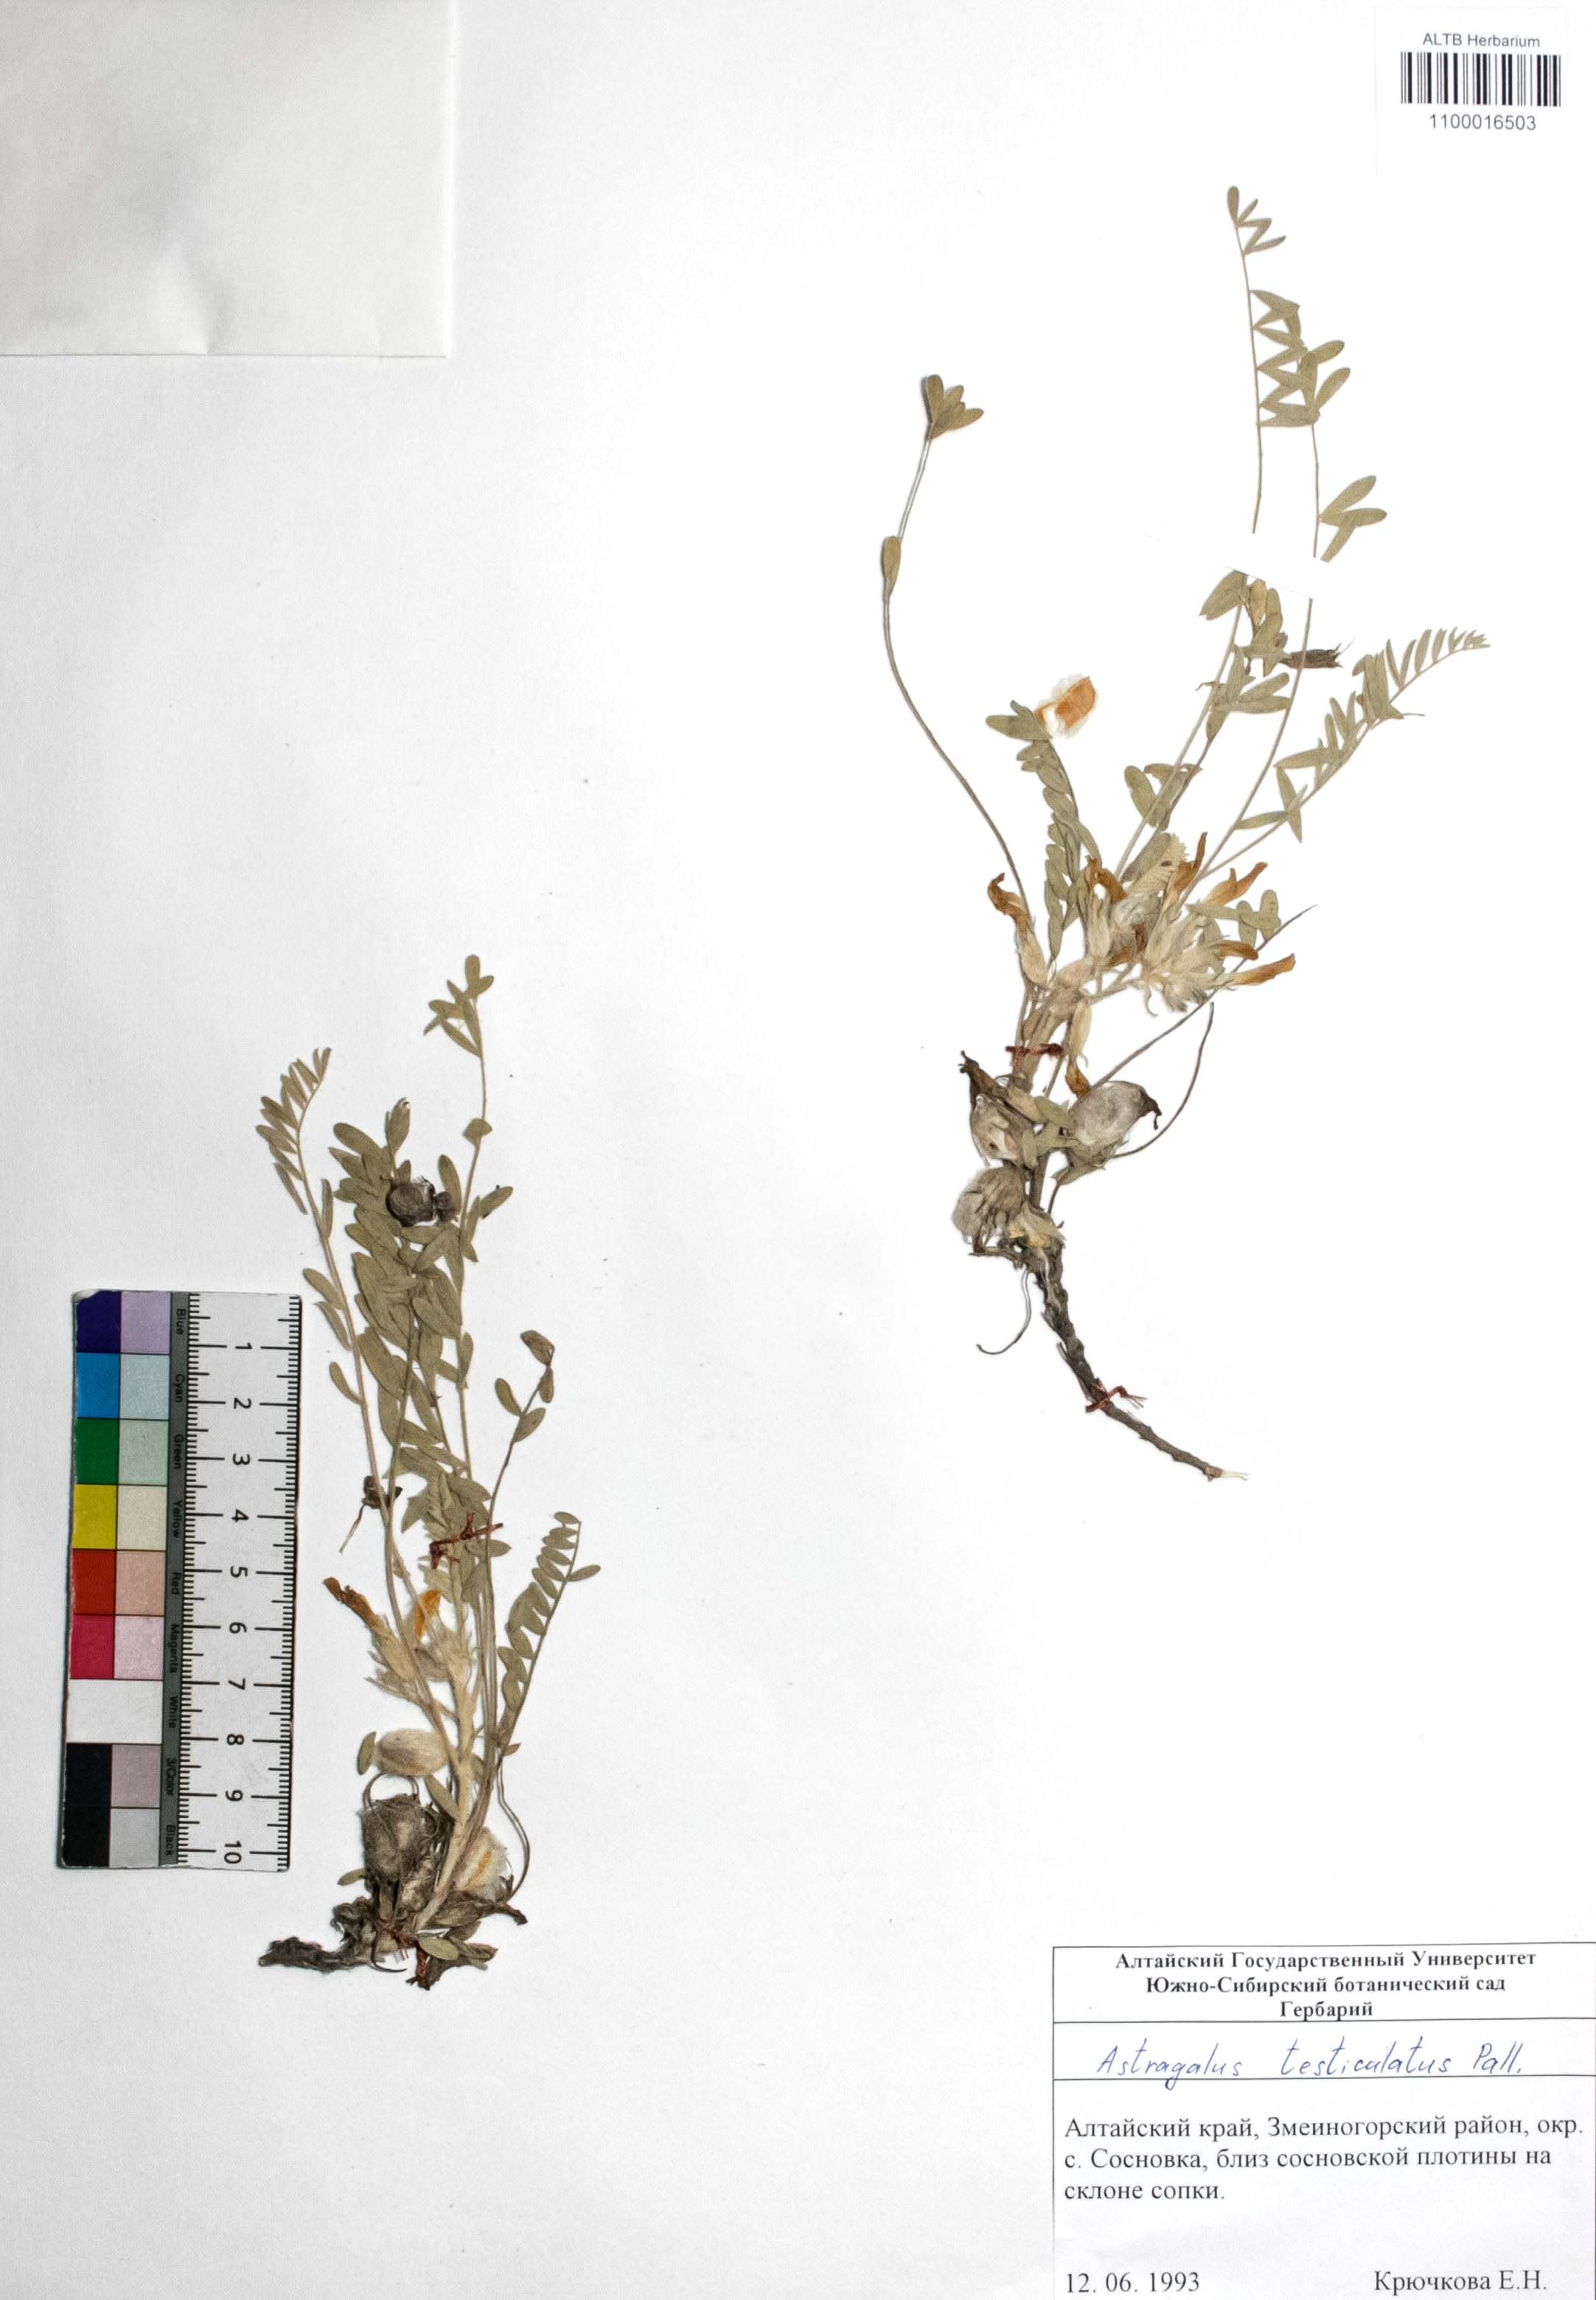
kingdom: Plantae
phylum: Tracheophyta
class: Magnoliopsida
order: Fabales
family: Fabaceae
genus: Astragalus
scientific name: Astragalus testiculatus
